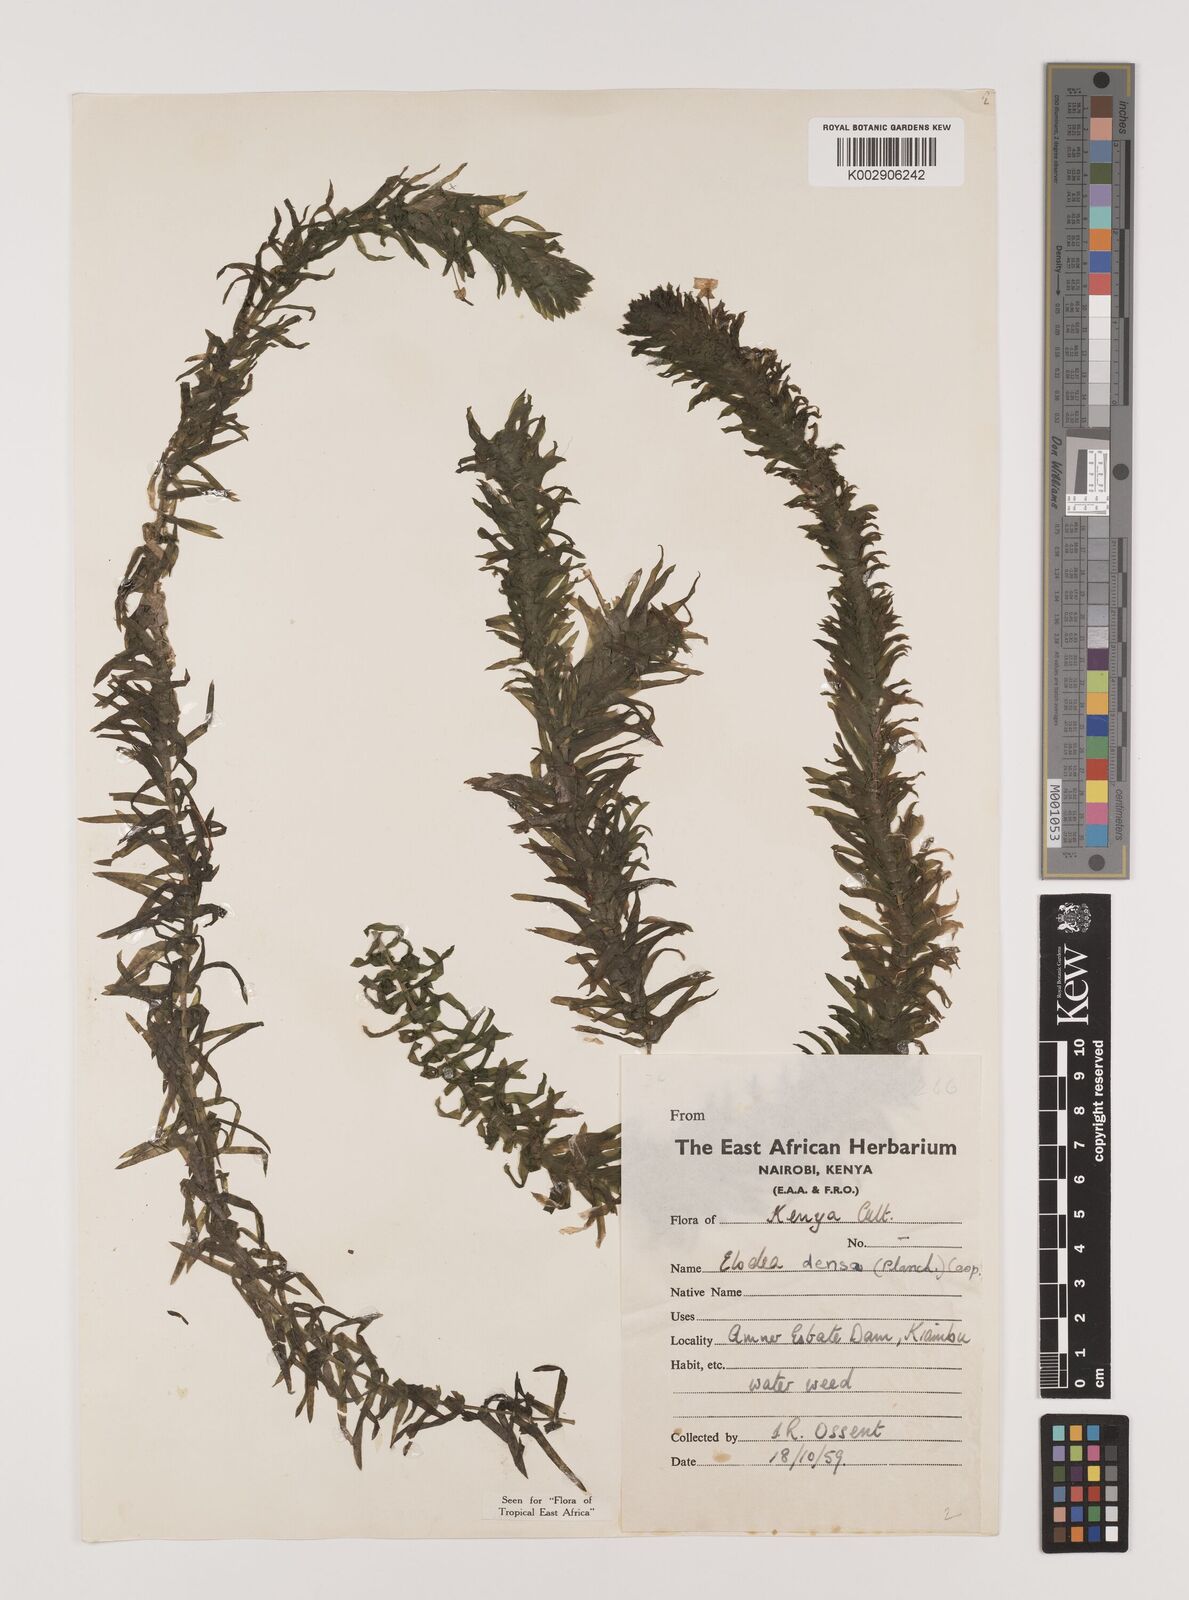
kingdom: Plantae
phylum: Tracheophyta
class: Liliopsida
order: Alismatales
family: Hydrocharitaceae
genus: Elodea
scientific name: Elodea densa
